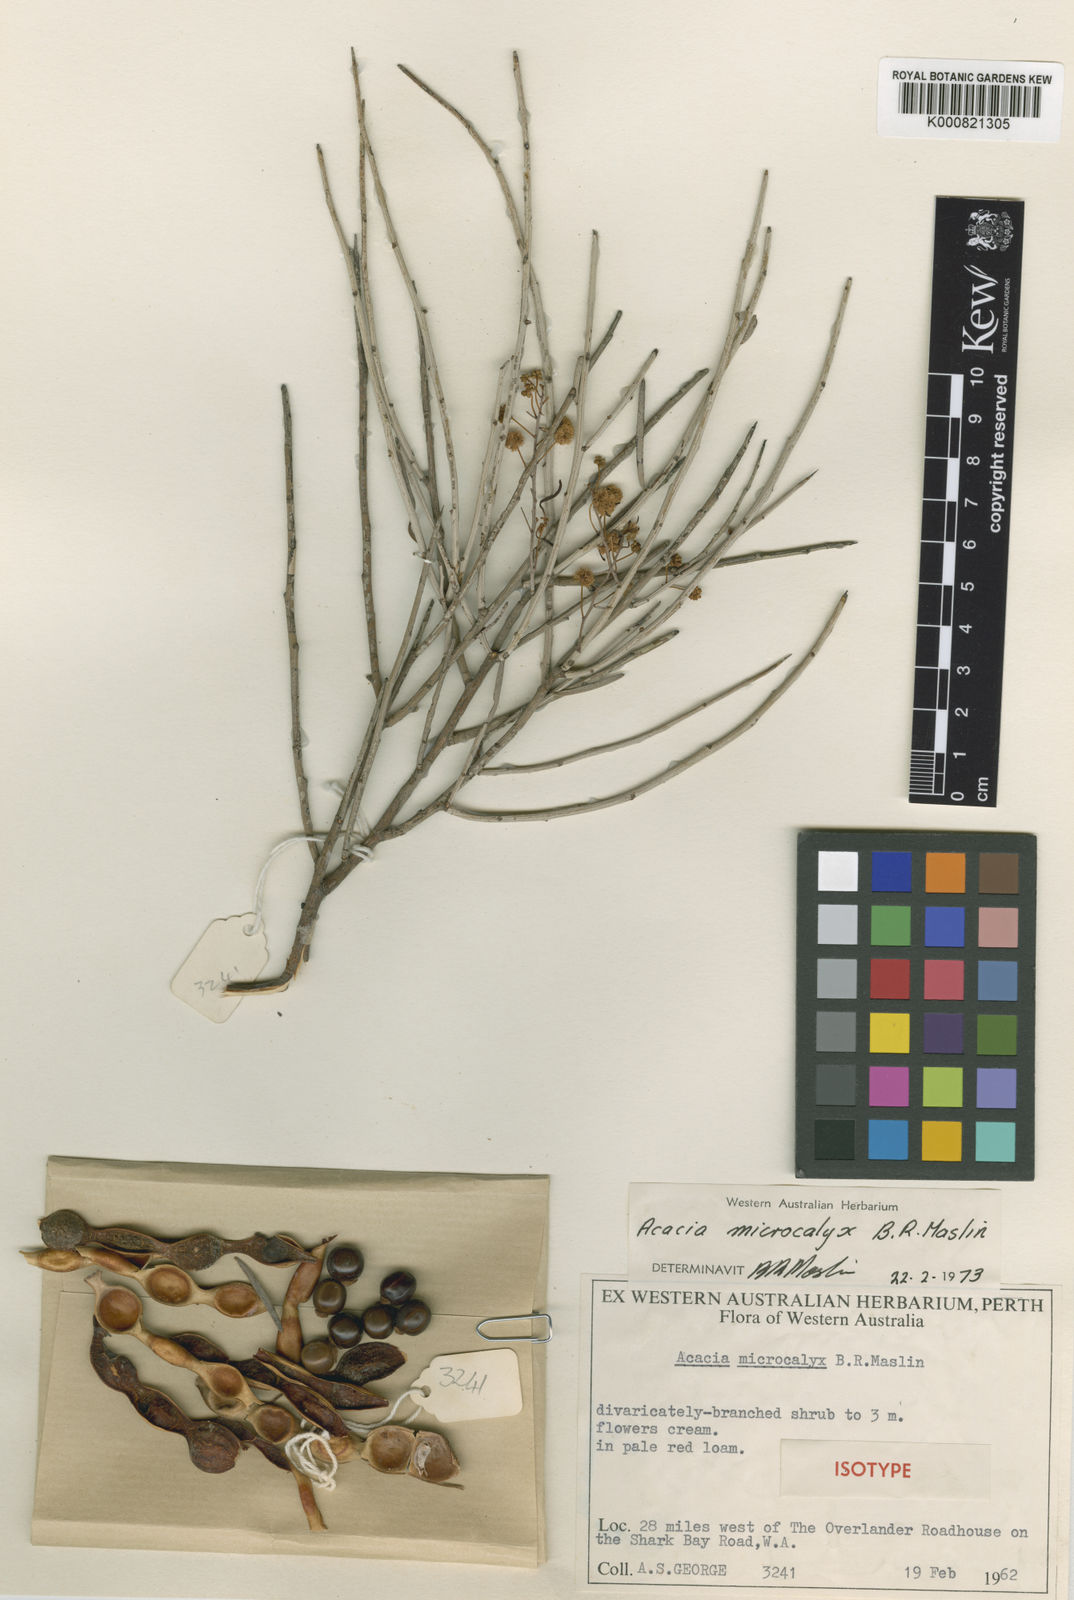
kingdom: Plantae
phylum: Tracheophyta
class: Magnoliopsida
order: Fabales
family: Fabaceae
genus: Acacia
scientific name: Acacia microcalyx
